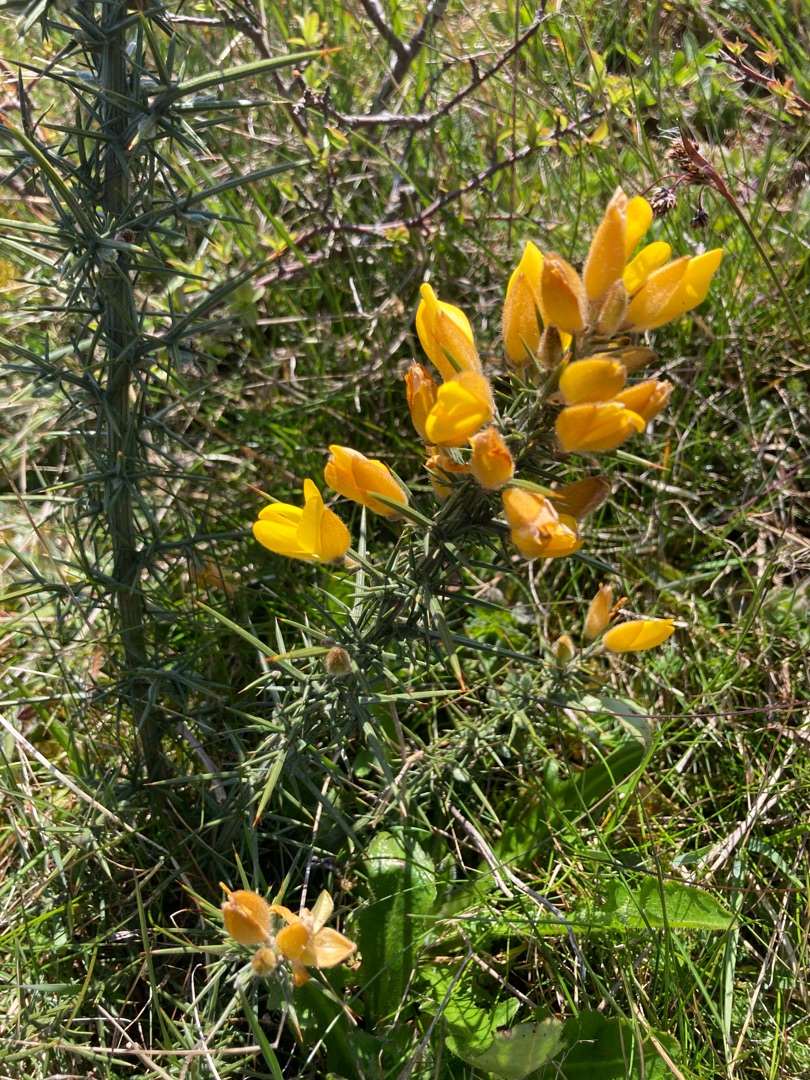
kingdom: Plantae
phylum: Tracheophyta
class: Magnoliopsida
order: Fabales
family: Fabaceae
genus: Ulex
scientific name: Ulex europaeus
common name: Tornblad
